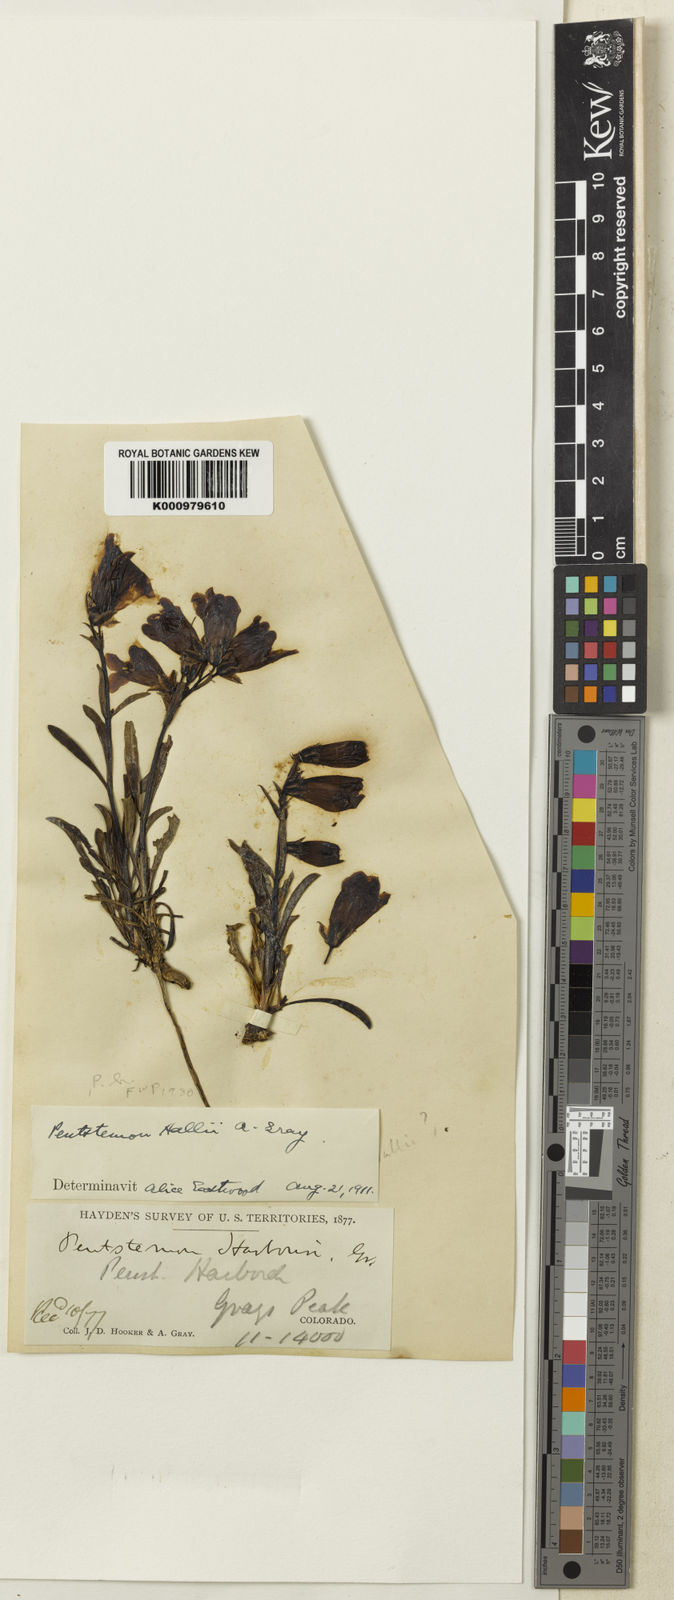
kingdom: Plantae
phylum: Tracheophyta
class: Magnoliopsida
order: Lamiales
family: Plantaginaceae
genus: Penstemon
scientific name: Penstemon hallii
